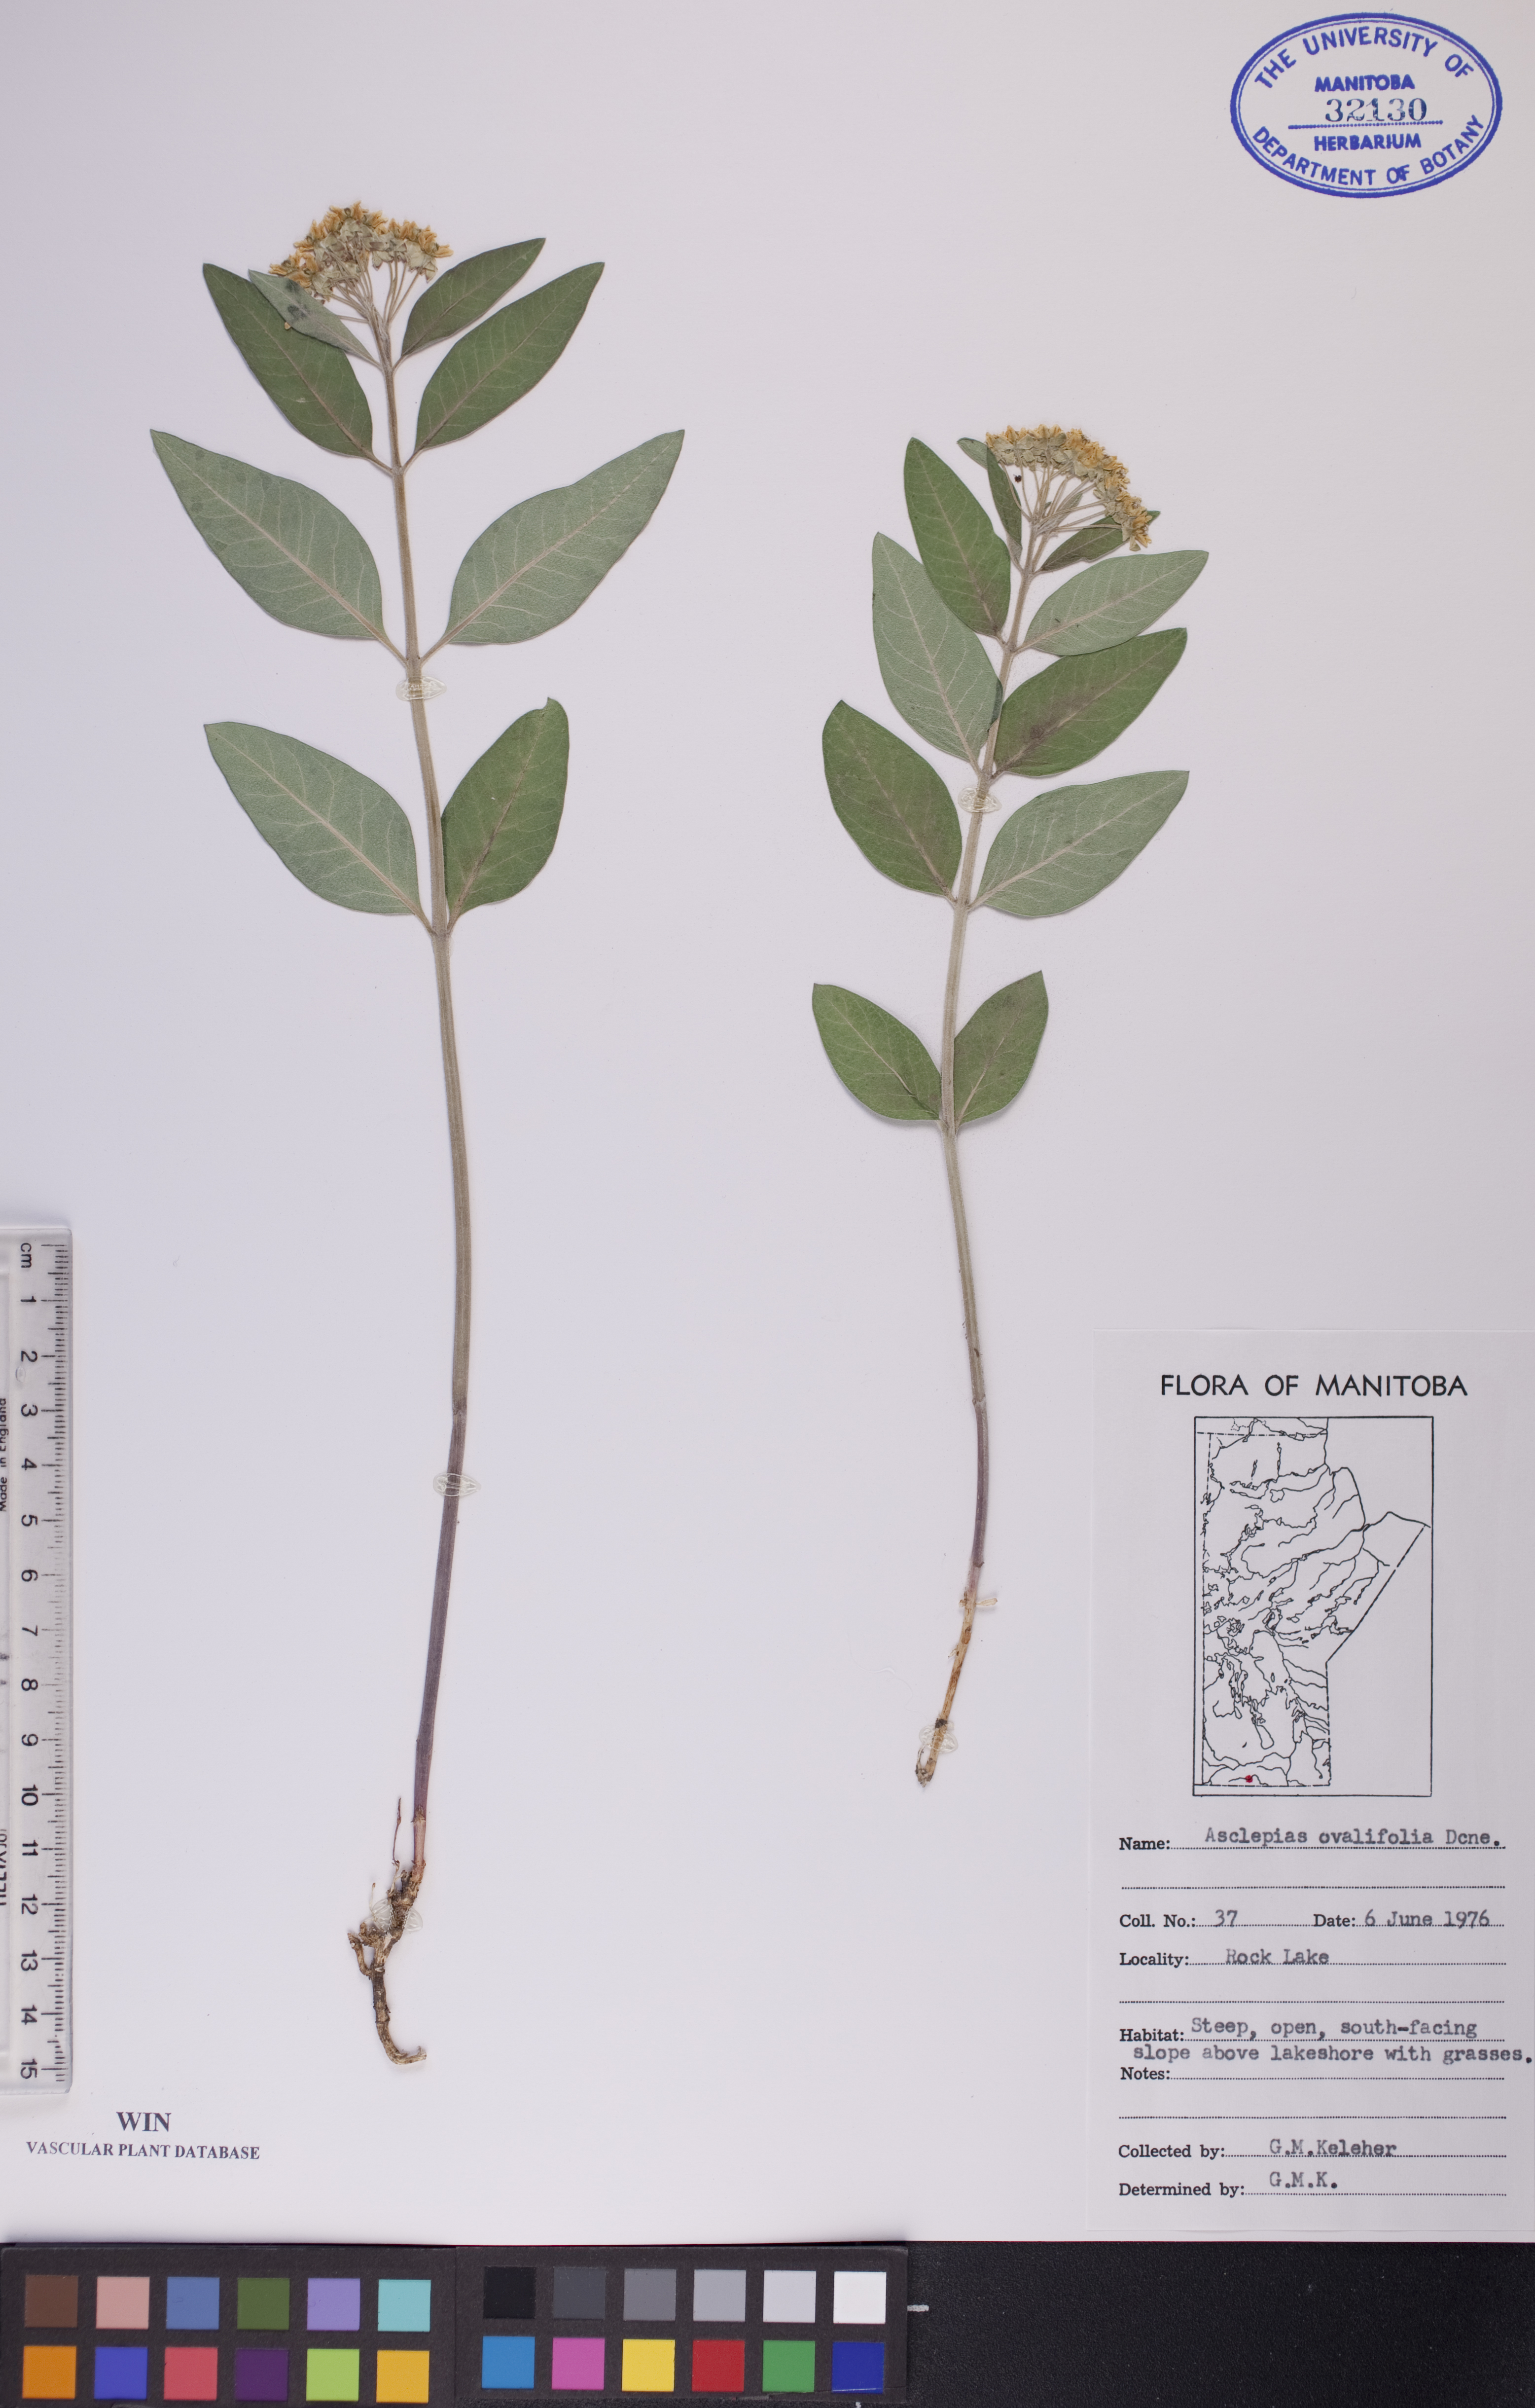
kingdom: Plantae
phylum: Tracheophyta
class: Magnoliopsida
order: Gentianales
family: Apocynaceae
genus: Asclepias
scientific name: Asclepias ovalifolia
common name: Dwarf milkweed
